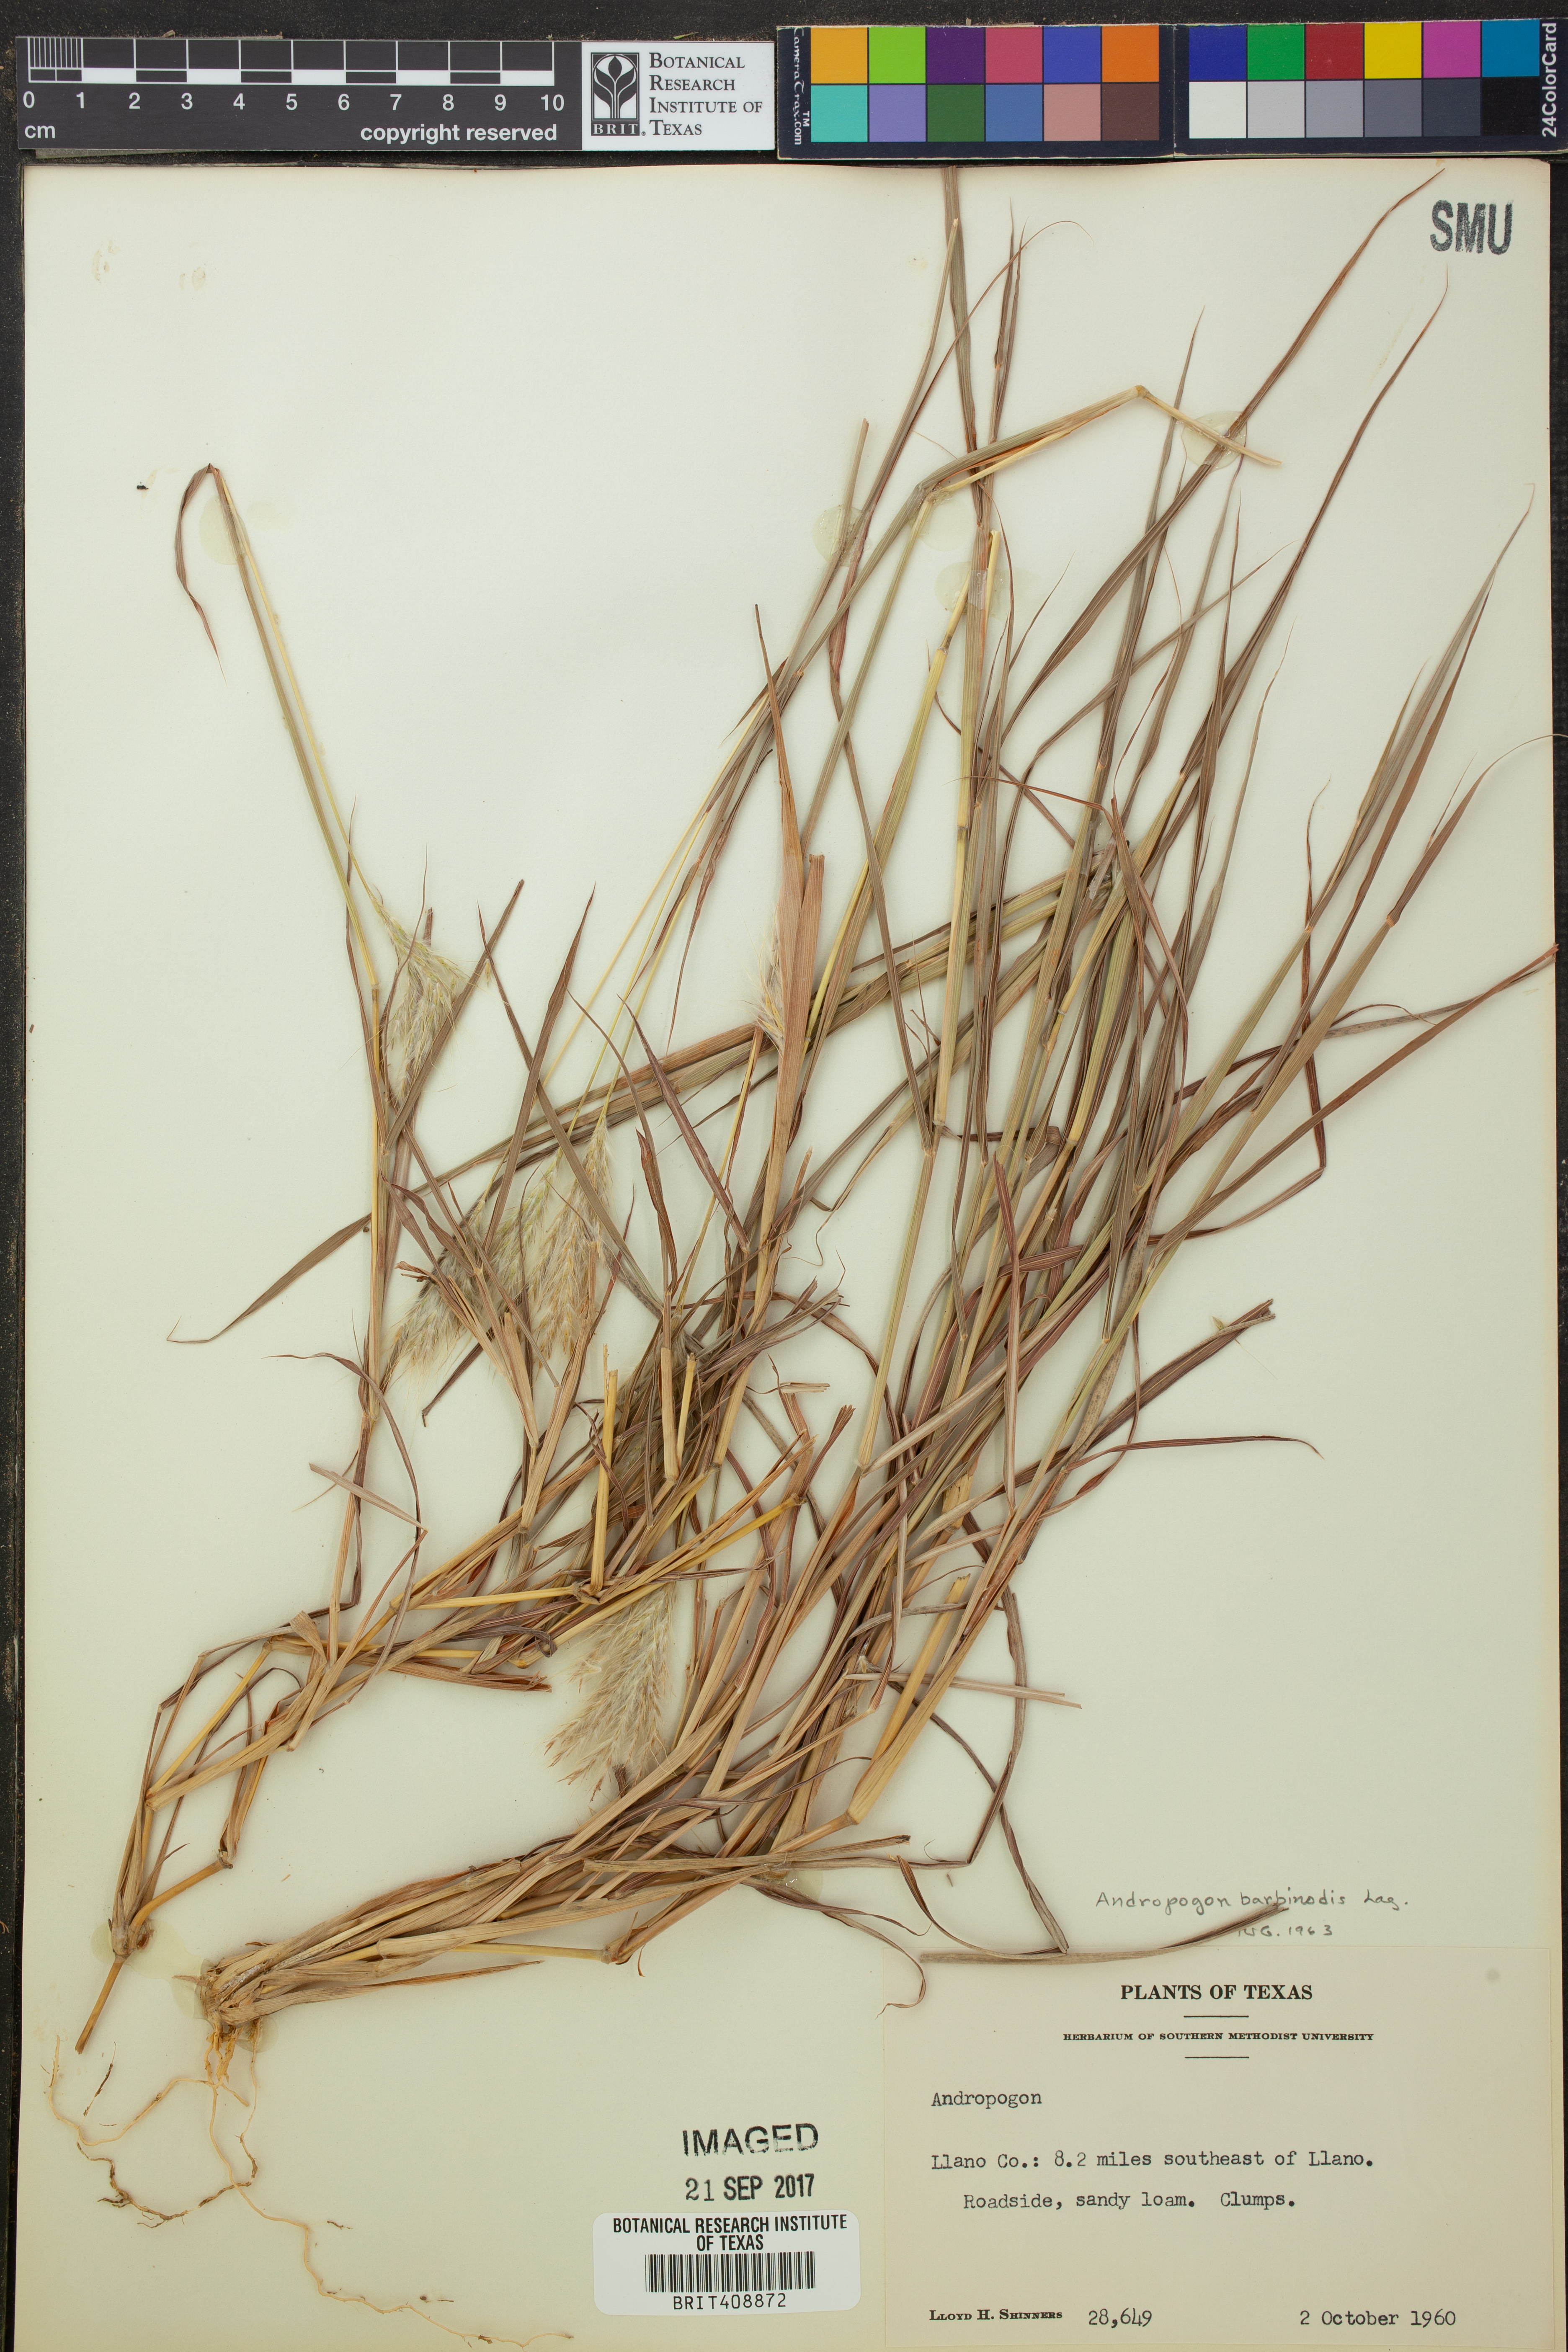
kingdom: Plantae
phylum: Tracheophyta
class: Liliopsida
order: Poales
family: Poaceae
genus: Bothriochloa
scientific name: Bothriochloa barbinodis
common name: Cane bluestem
